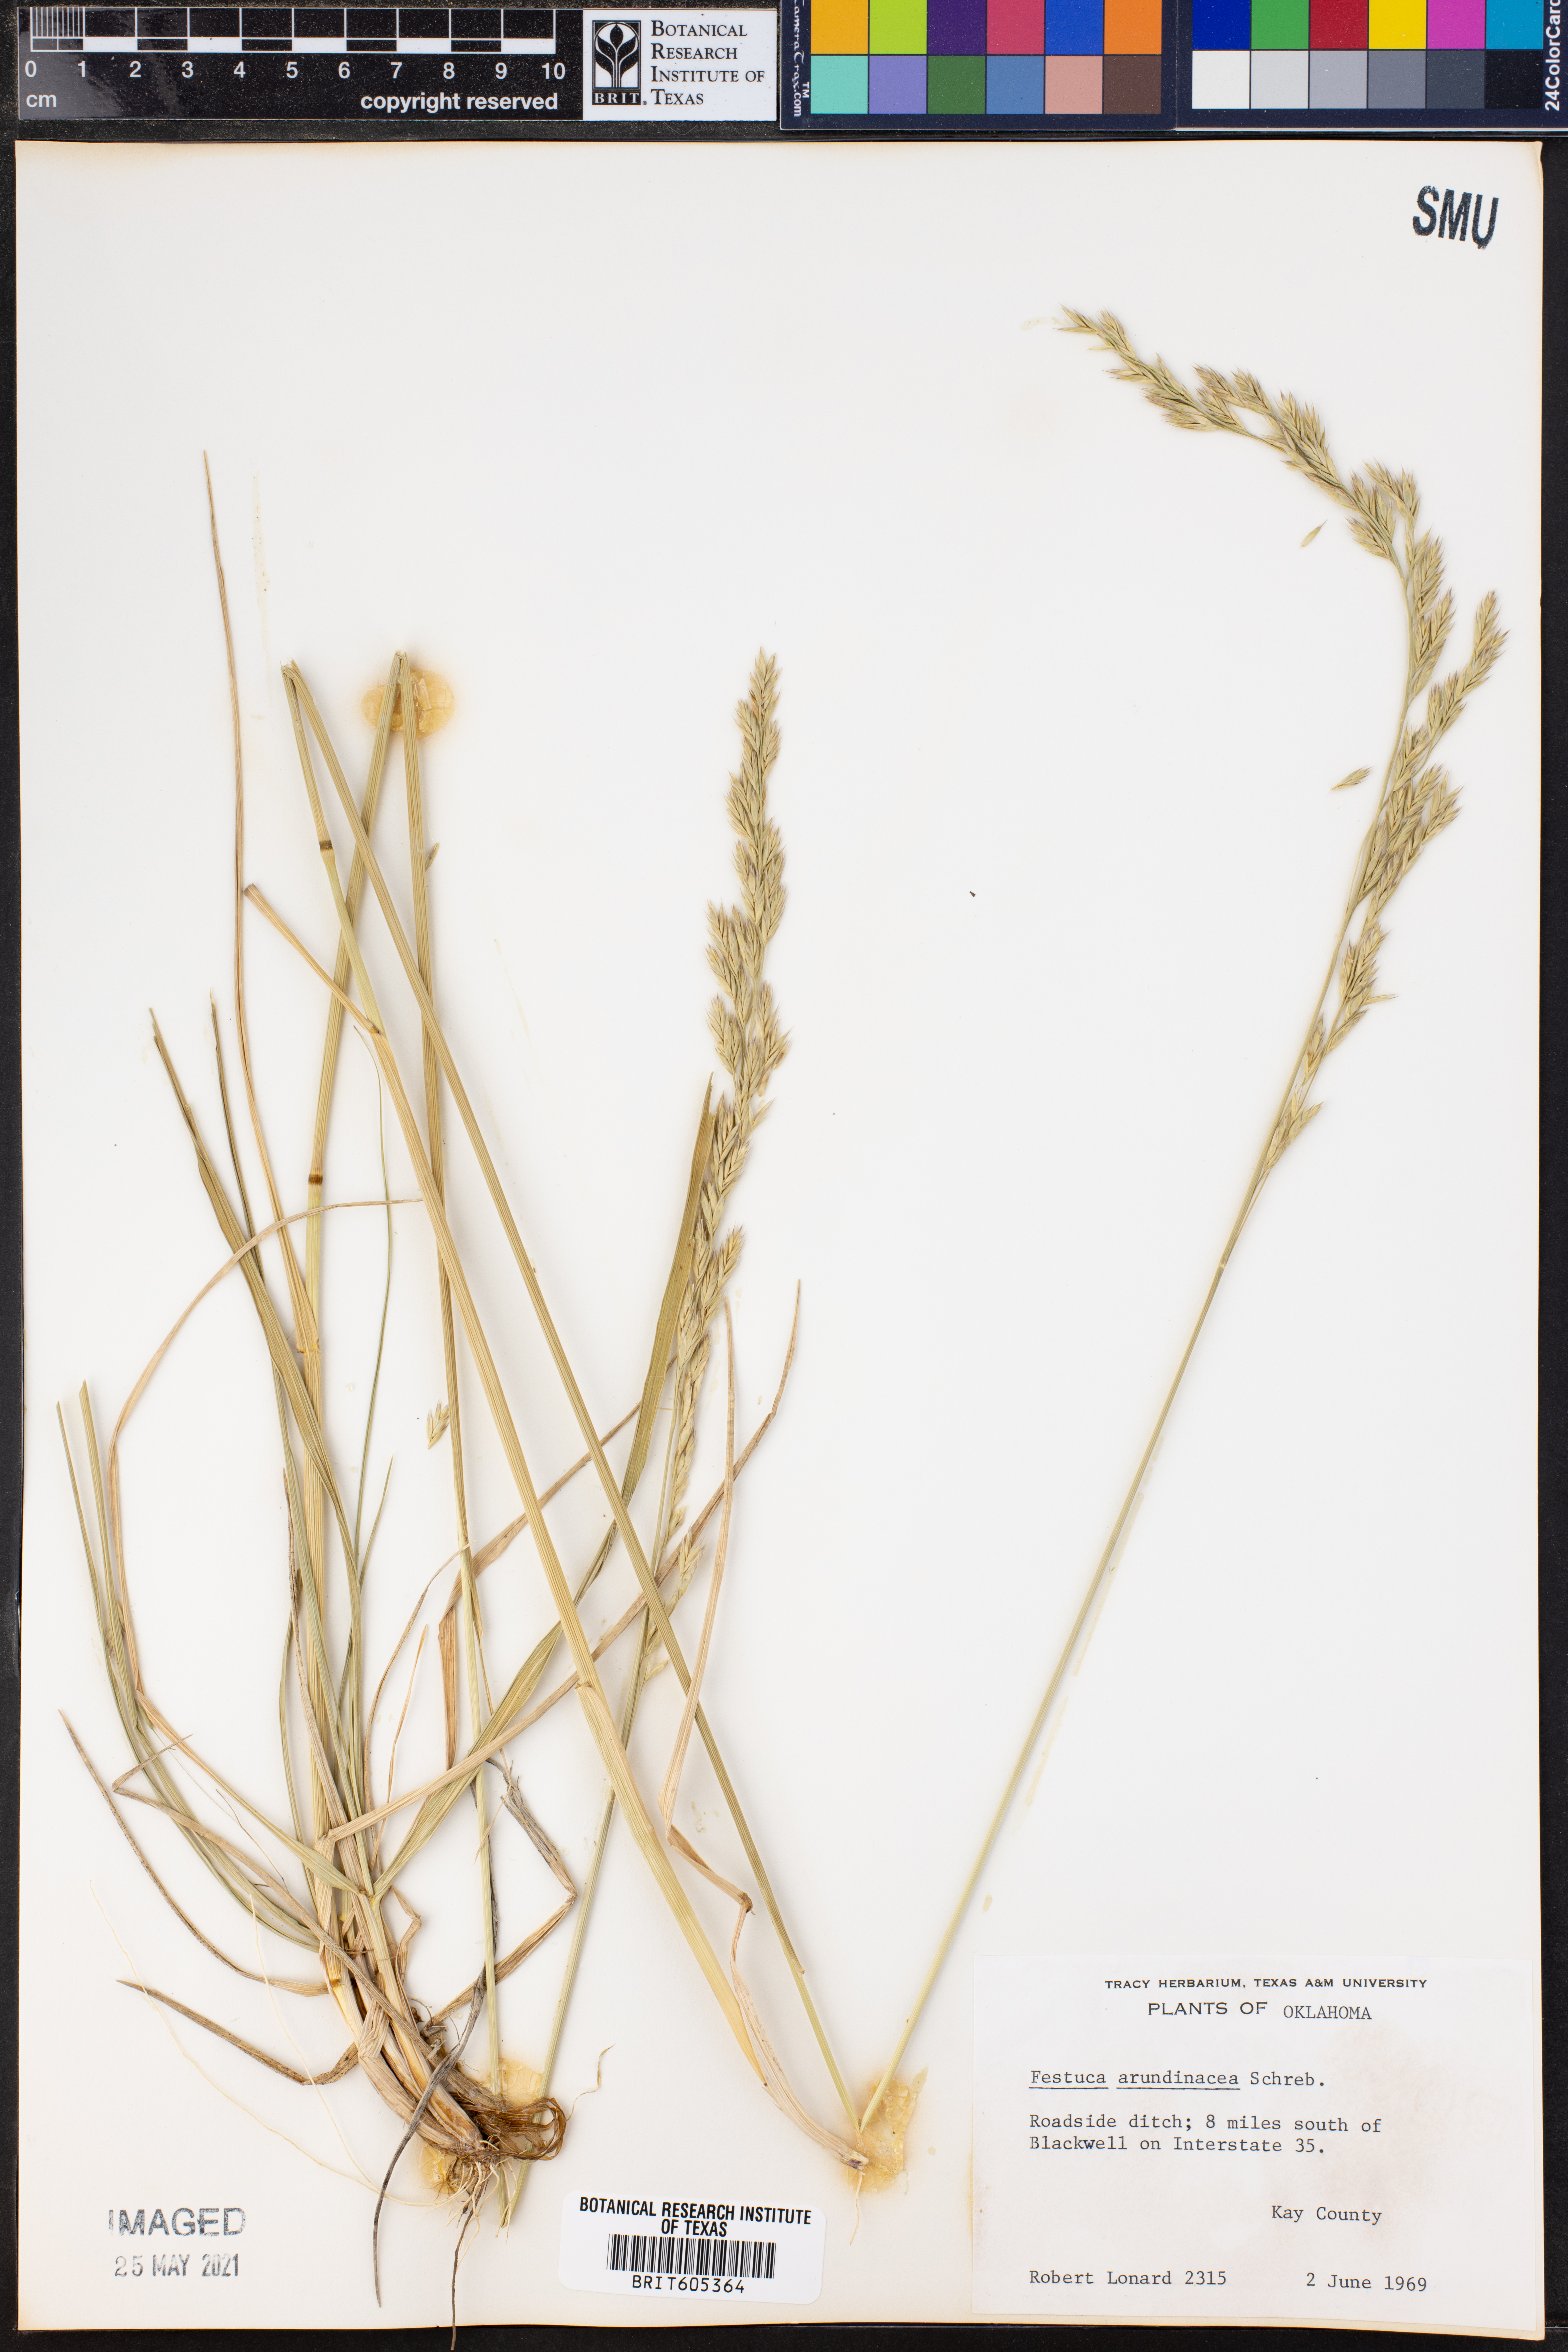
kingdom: Plantae
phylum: Tracheophyta
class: Liliopsida
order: Poales
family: Poaceae
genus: Lolium
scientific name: Lolium arundinaceum
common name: Reed fescue
